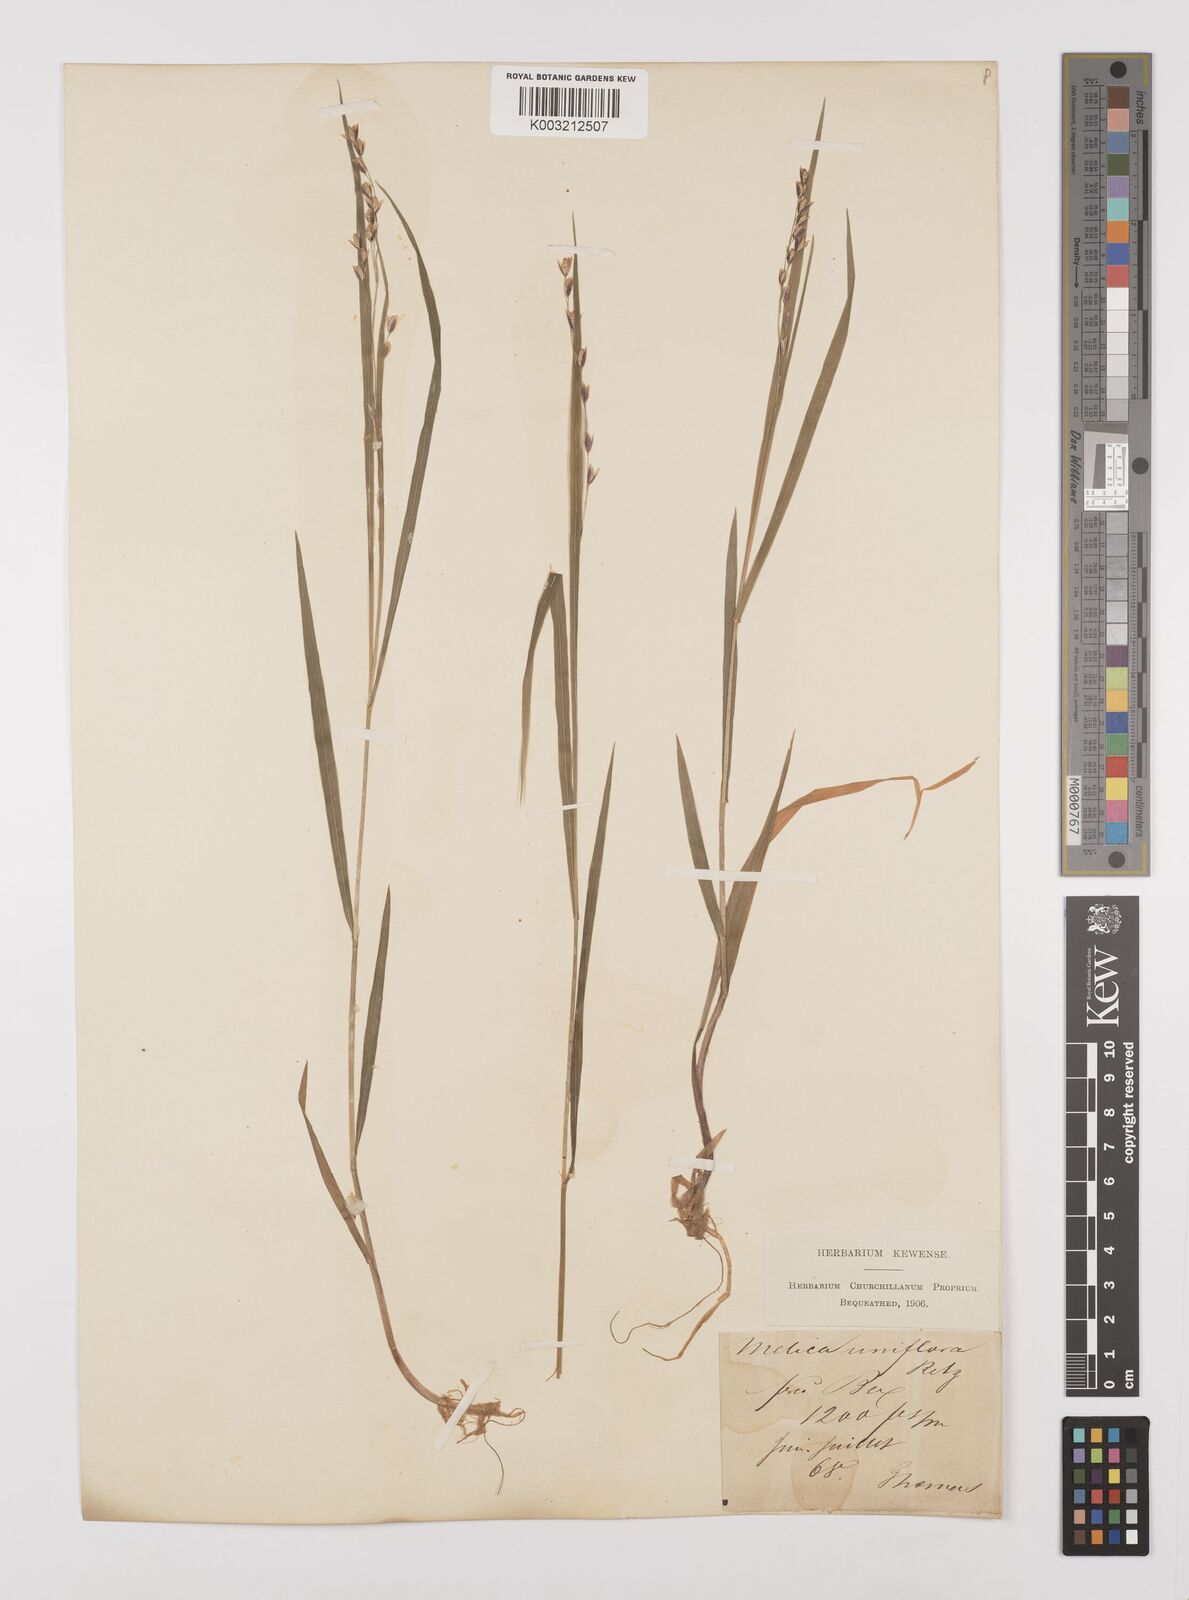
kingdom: Plantae
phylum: Tracheophyta
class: Liliopsida
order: Poales
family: Poaceae
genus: Melica
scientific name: Melica uniflora
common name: Wood melick
